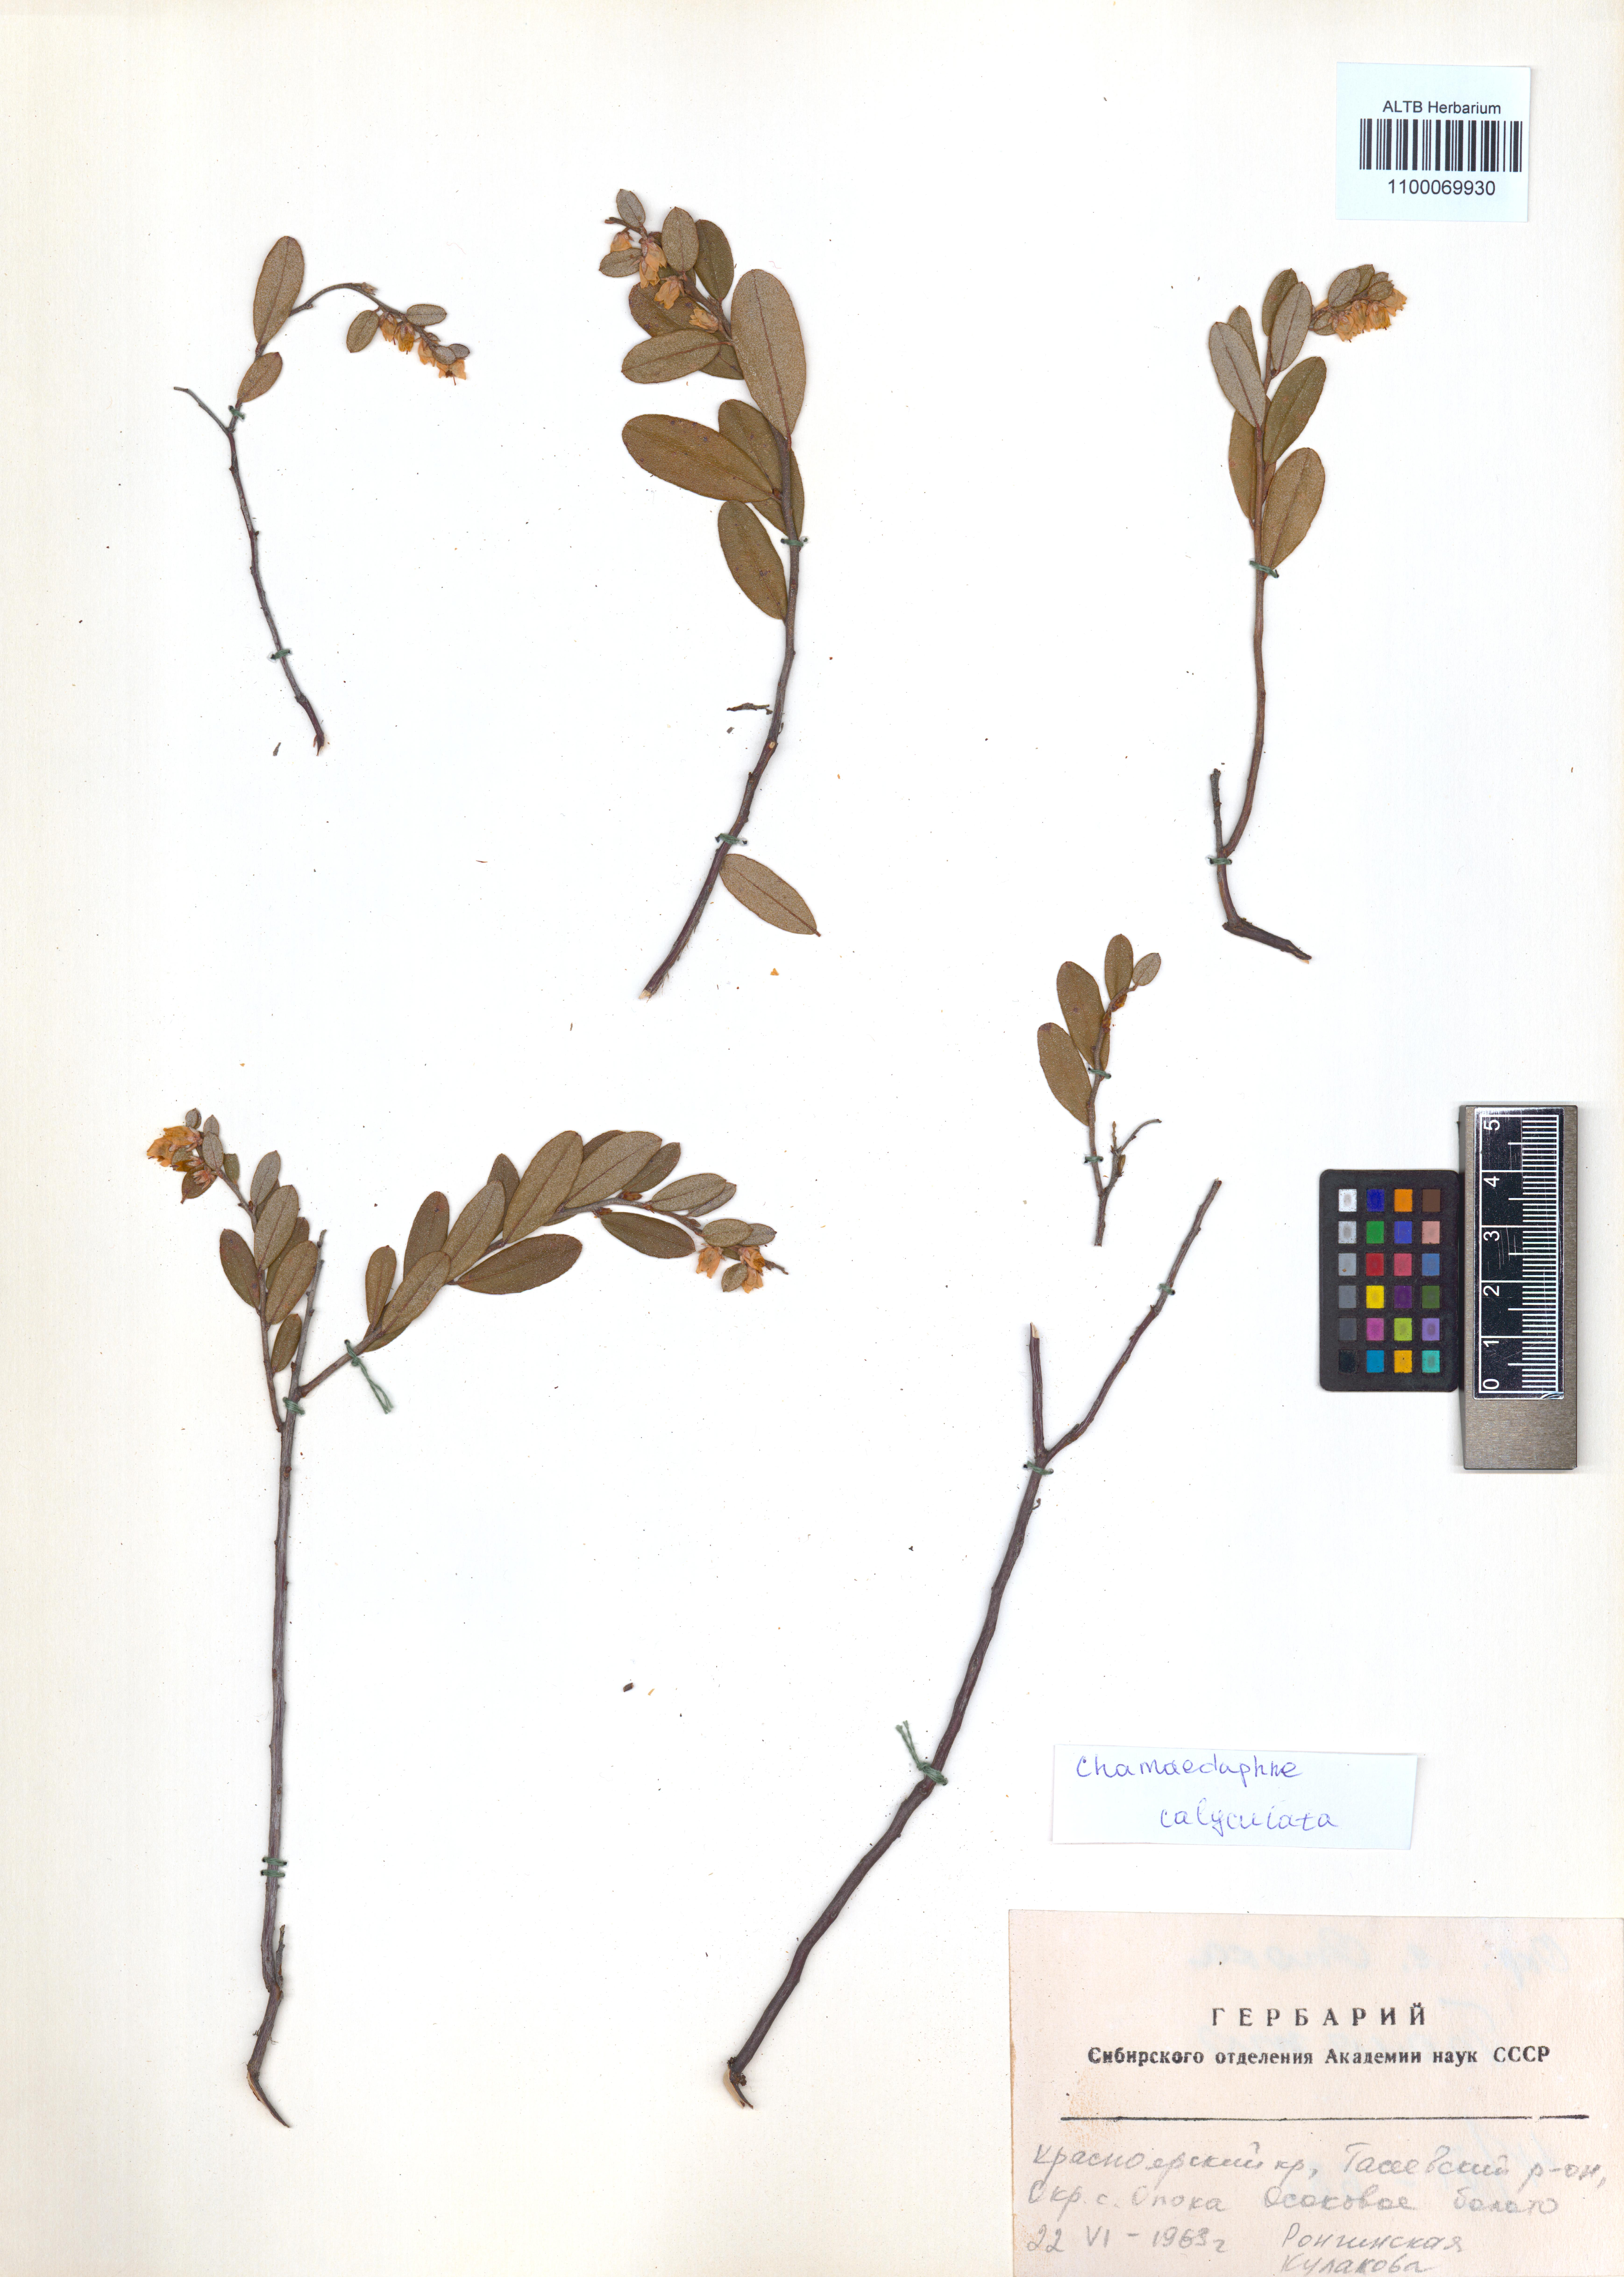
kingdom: Plantae
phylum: Tracheophyta
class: Magnoliopsida
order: Ericales
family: Ericaceae
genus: Chamaedaphne
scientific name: Chamaedaphne calyculata
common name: Leatherleaf
